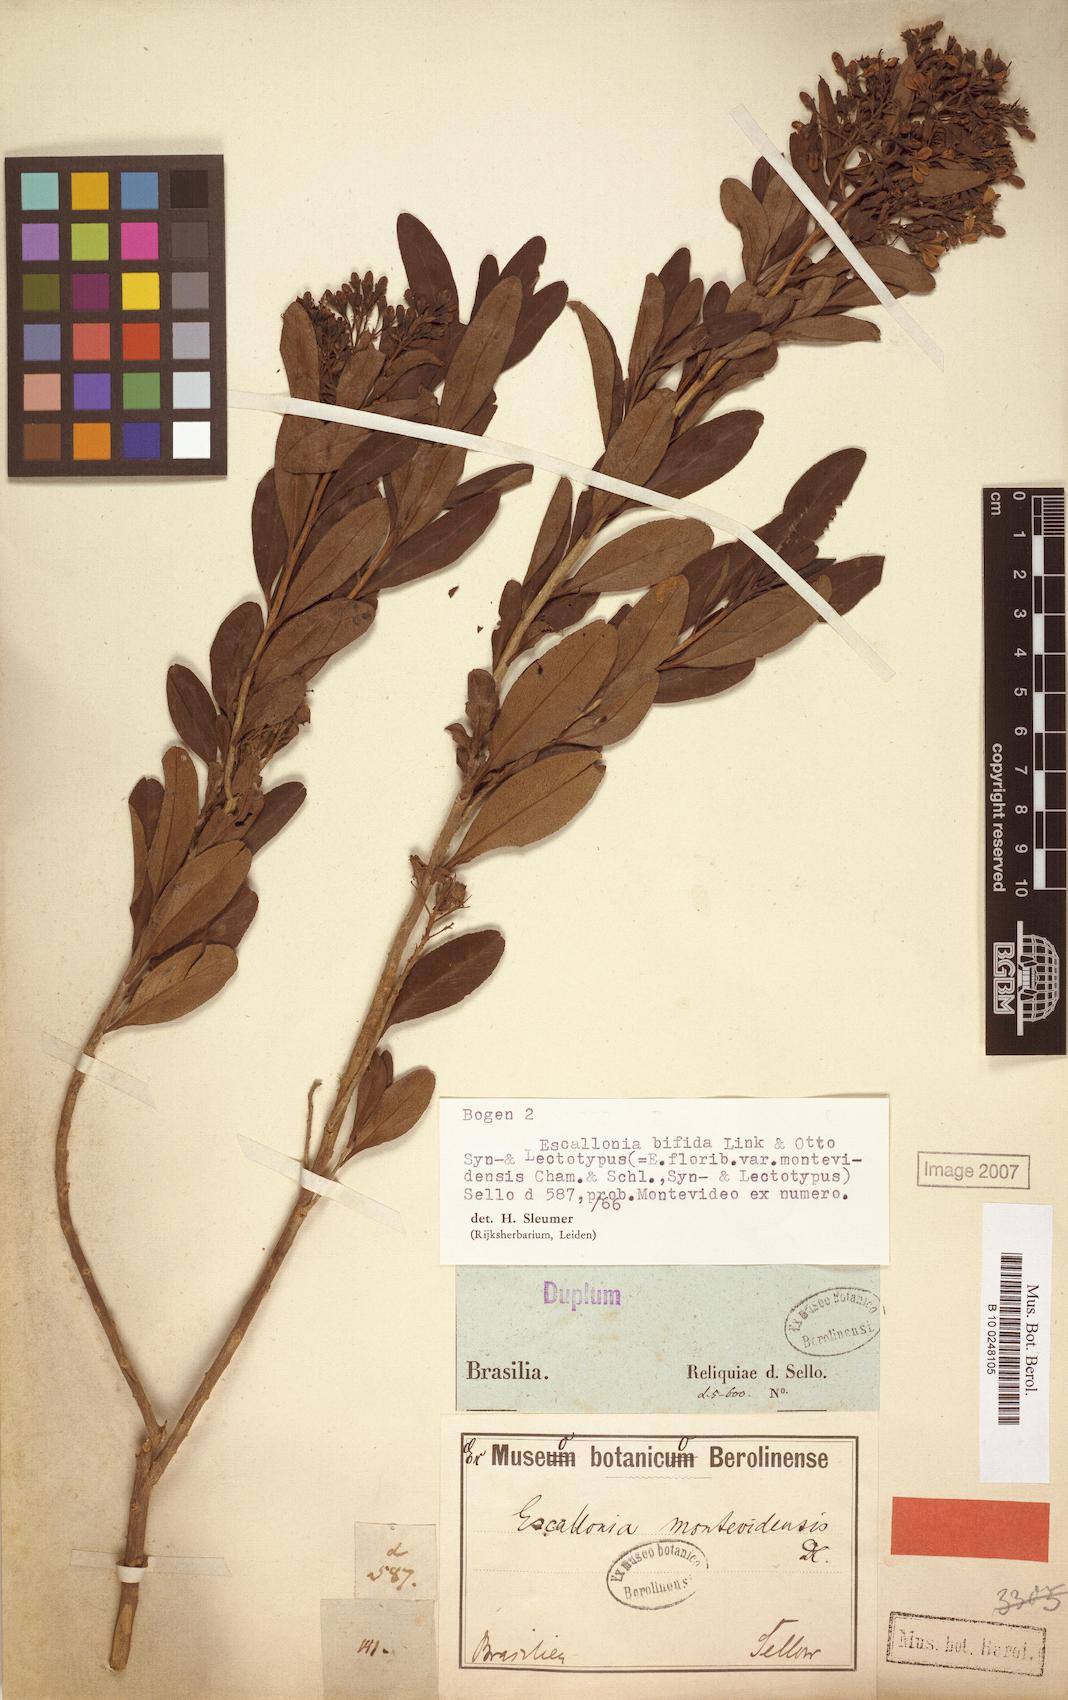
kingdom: Plantae
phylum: Tracheophyta
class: Magnoliopsida
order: Escalloniales
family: Escalloniaceae
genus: Escallonia
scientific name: Escallonia bifida
